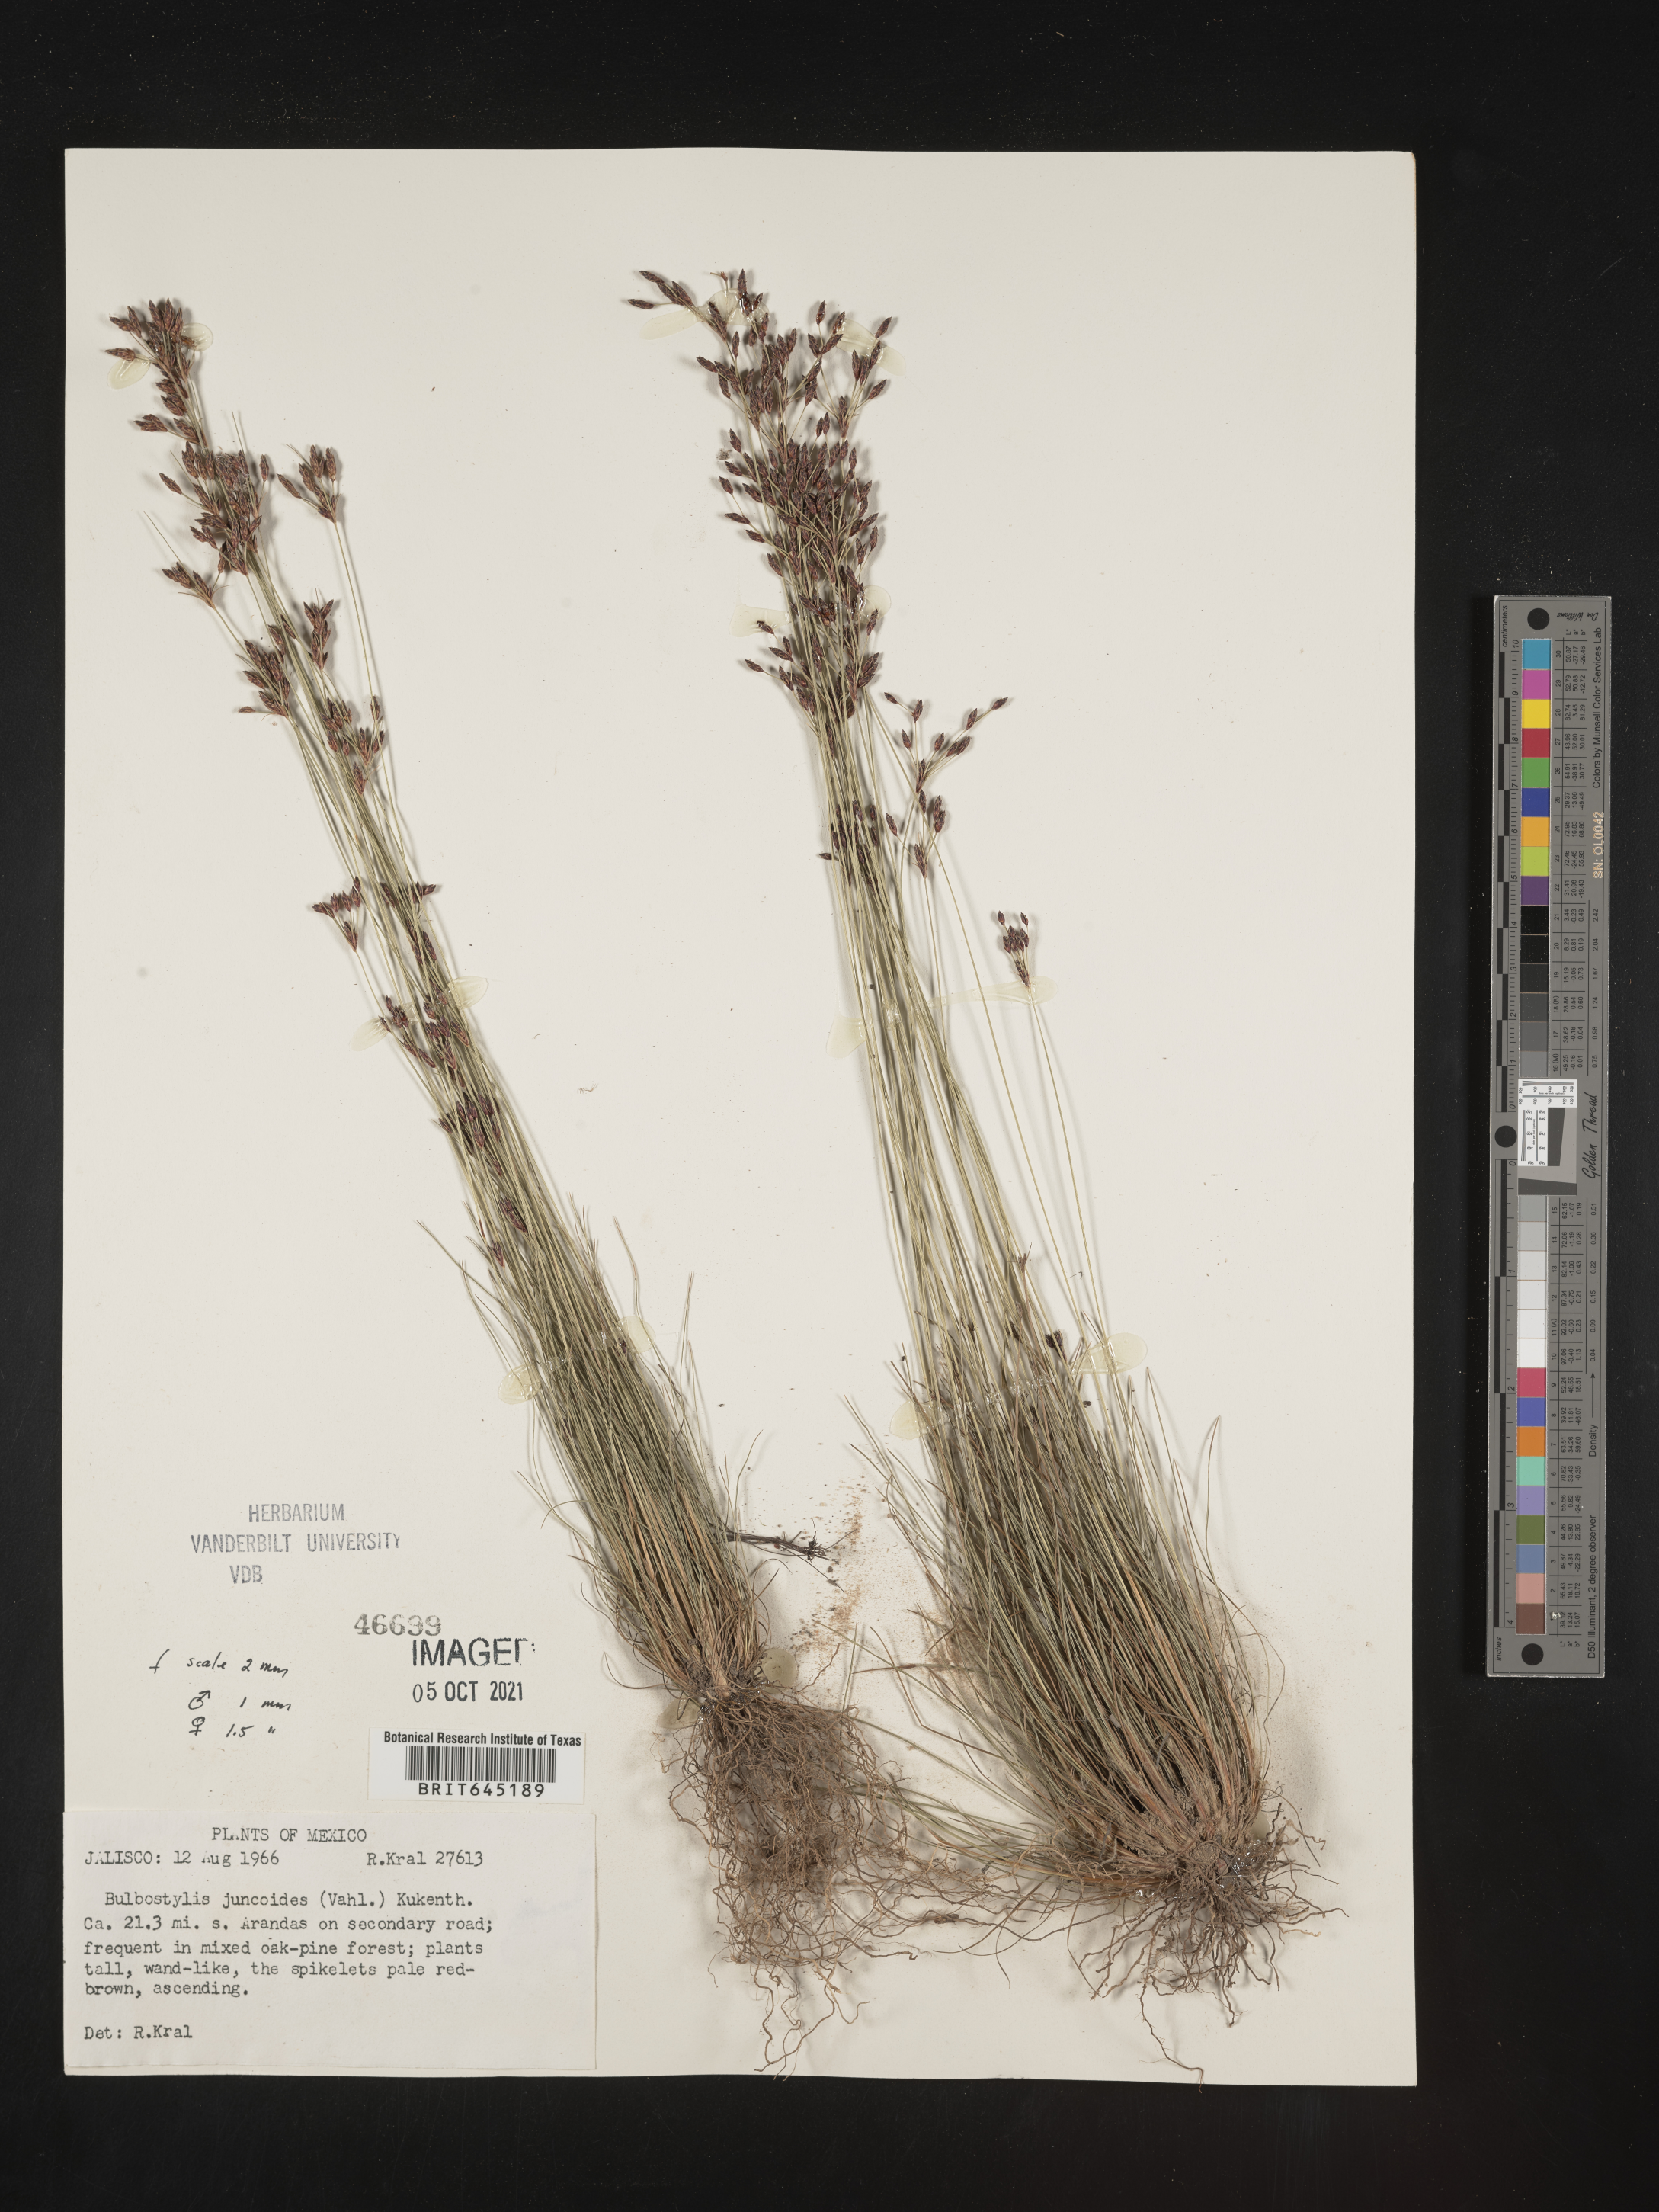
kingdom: Plantae
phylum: Tracheophyta
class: Liliopsida
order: Poales
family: Cyperaceae
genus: Bulbostylis
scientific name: Bulbostylis juncoides
